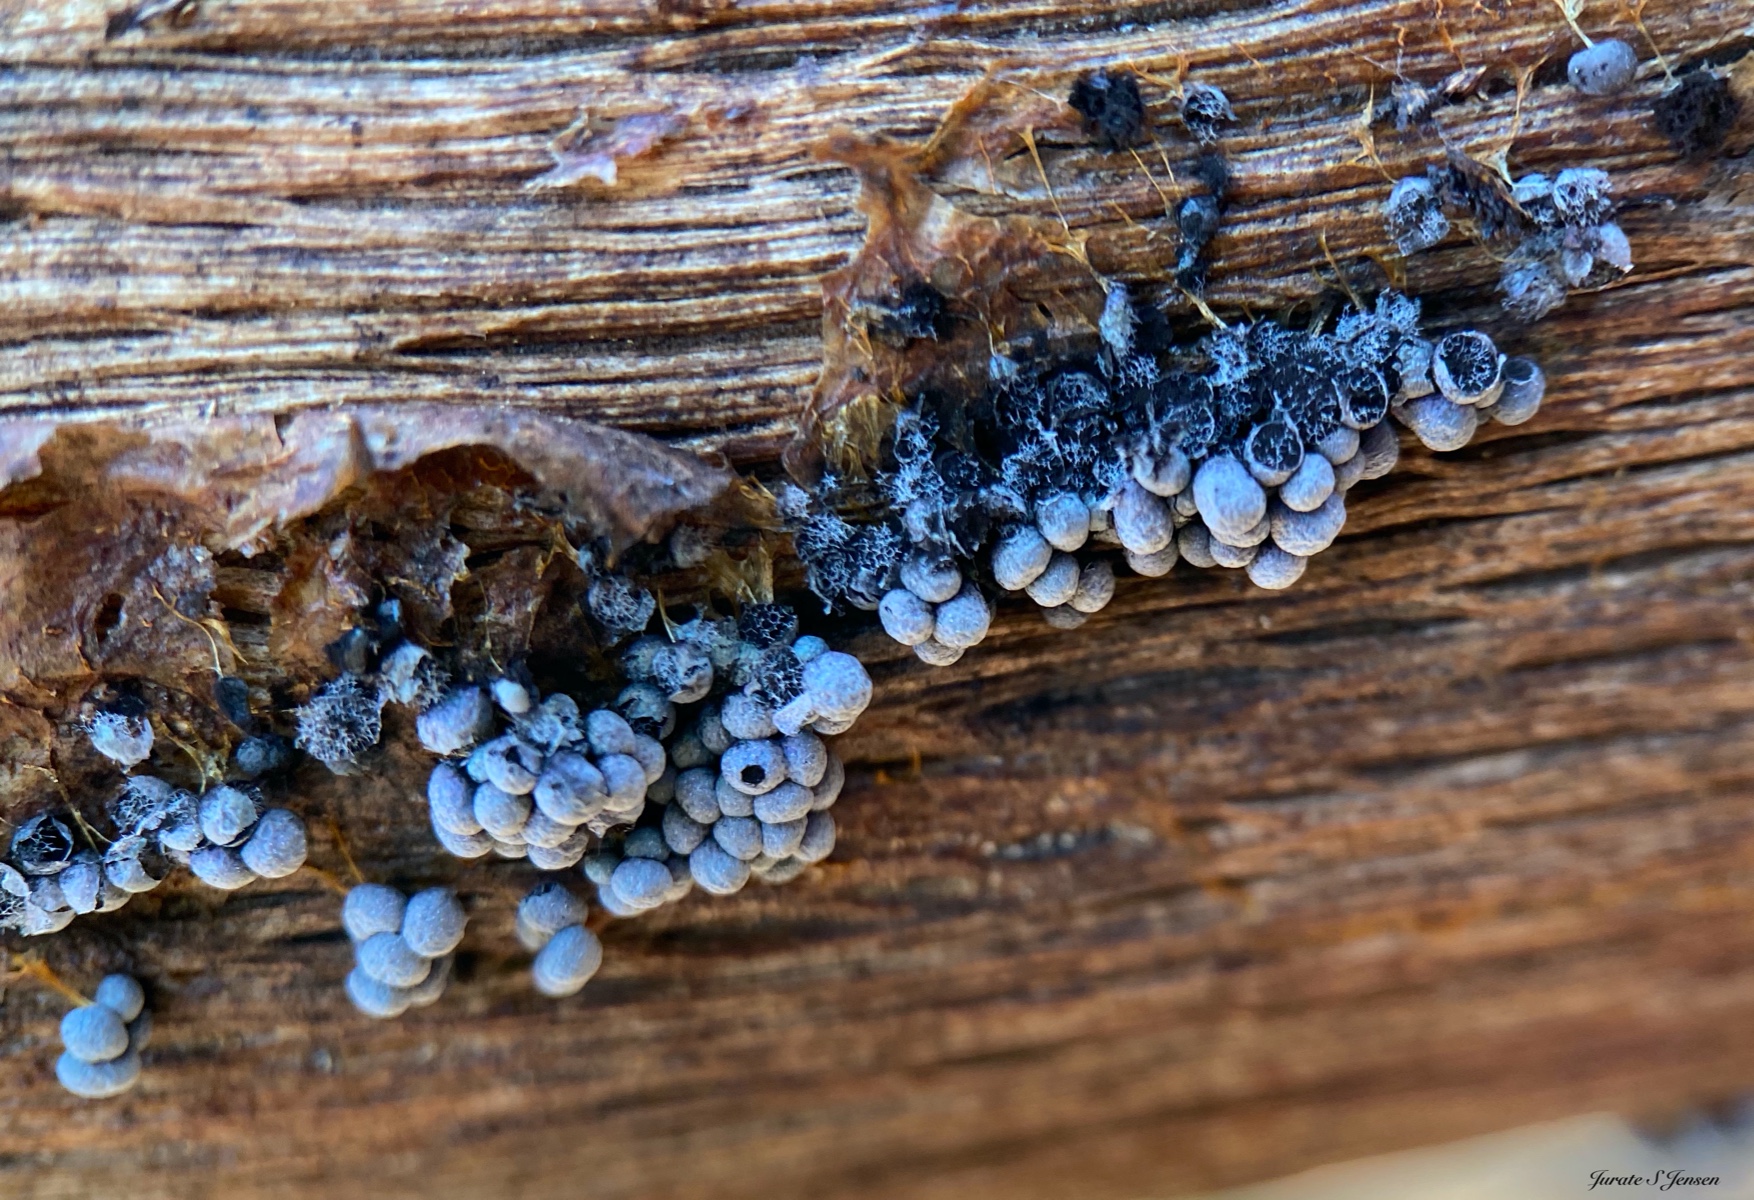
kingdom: Protozoa
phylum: Mycetozoa
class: Myxomycetes
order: Physarales
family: Physaraceae
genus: Badhamia
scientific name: Badhamia utricularis
